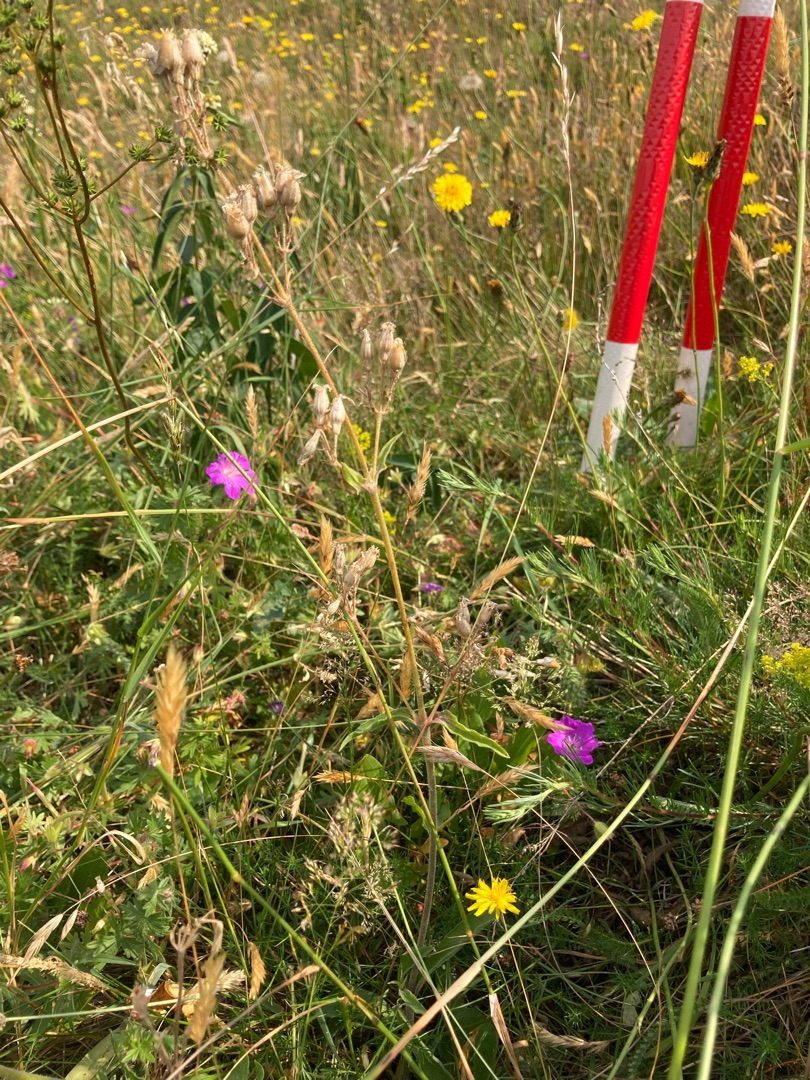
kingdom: Plantae
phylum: Tracheophyta
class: Magnoliopsida
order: Caryophyllales
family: Caryophyllaceae
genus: Silene
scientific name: Silene nutans
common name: Nikkende limurt
